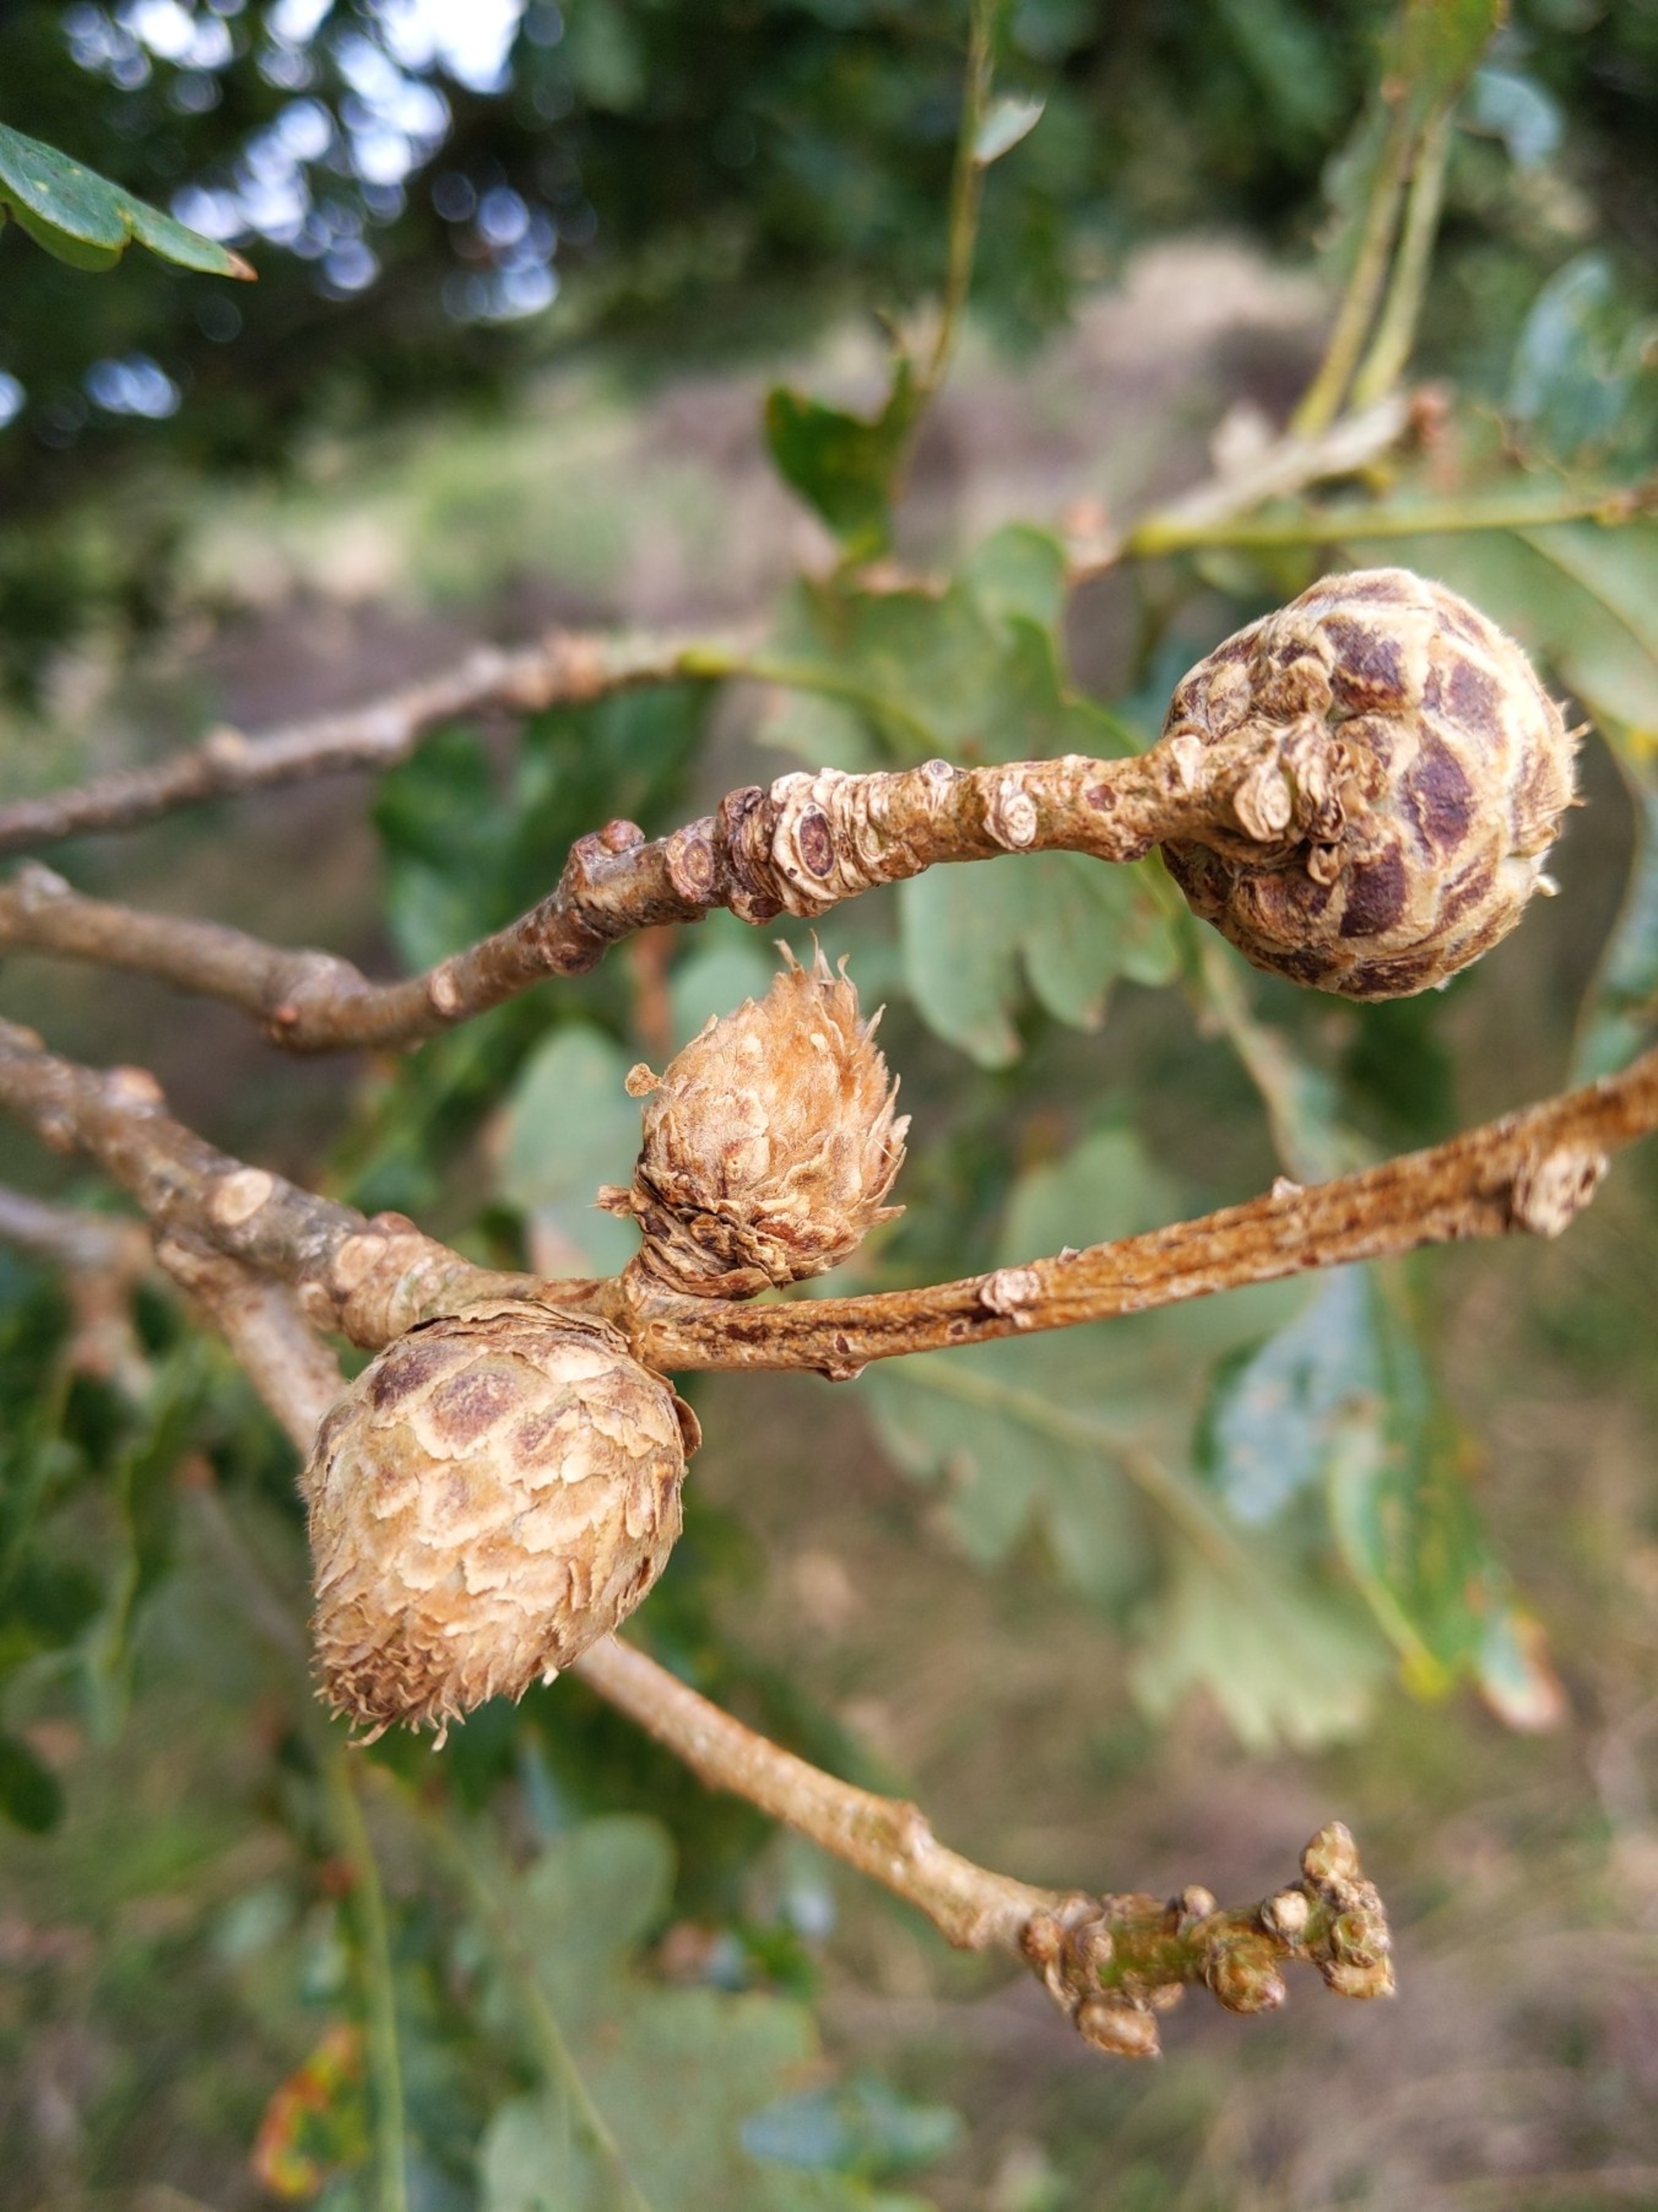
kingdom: Animalia
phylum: Arthropoda
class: Insecta
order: Hymenoptera
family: Cynipidae
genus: Andricus
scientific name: Andricus foecundatrix
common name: Artiskokgalhveps
